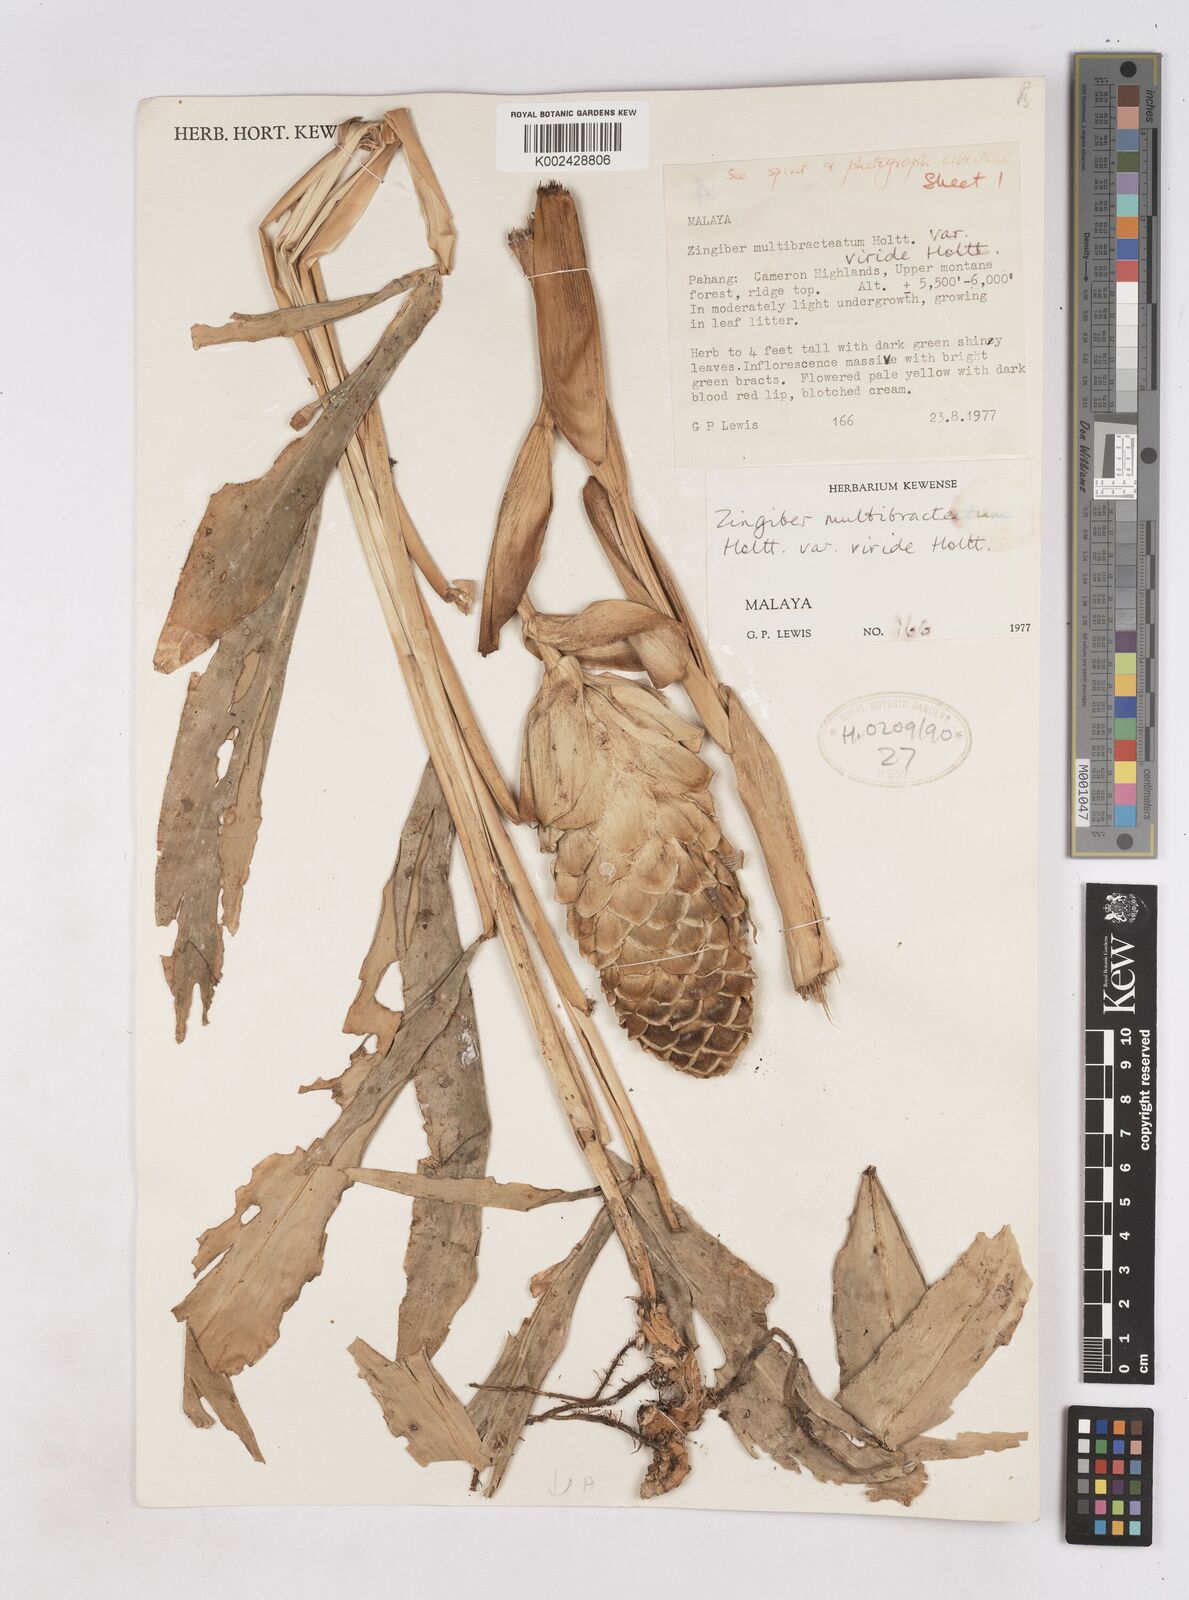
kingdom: Plantae
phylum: Tracheophyta
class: Liliopsida
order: Zingiberales
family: Zingiberaceae
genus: Zingiber
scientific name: Zingiber multibracteatum
